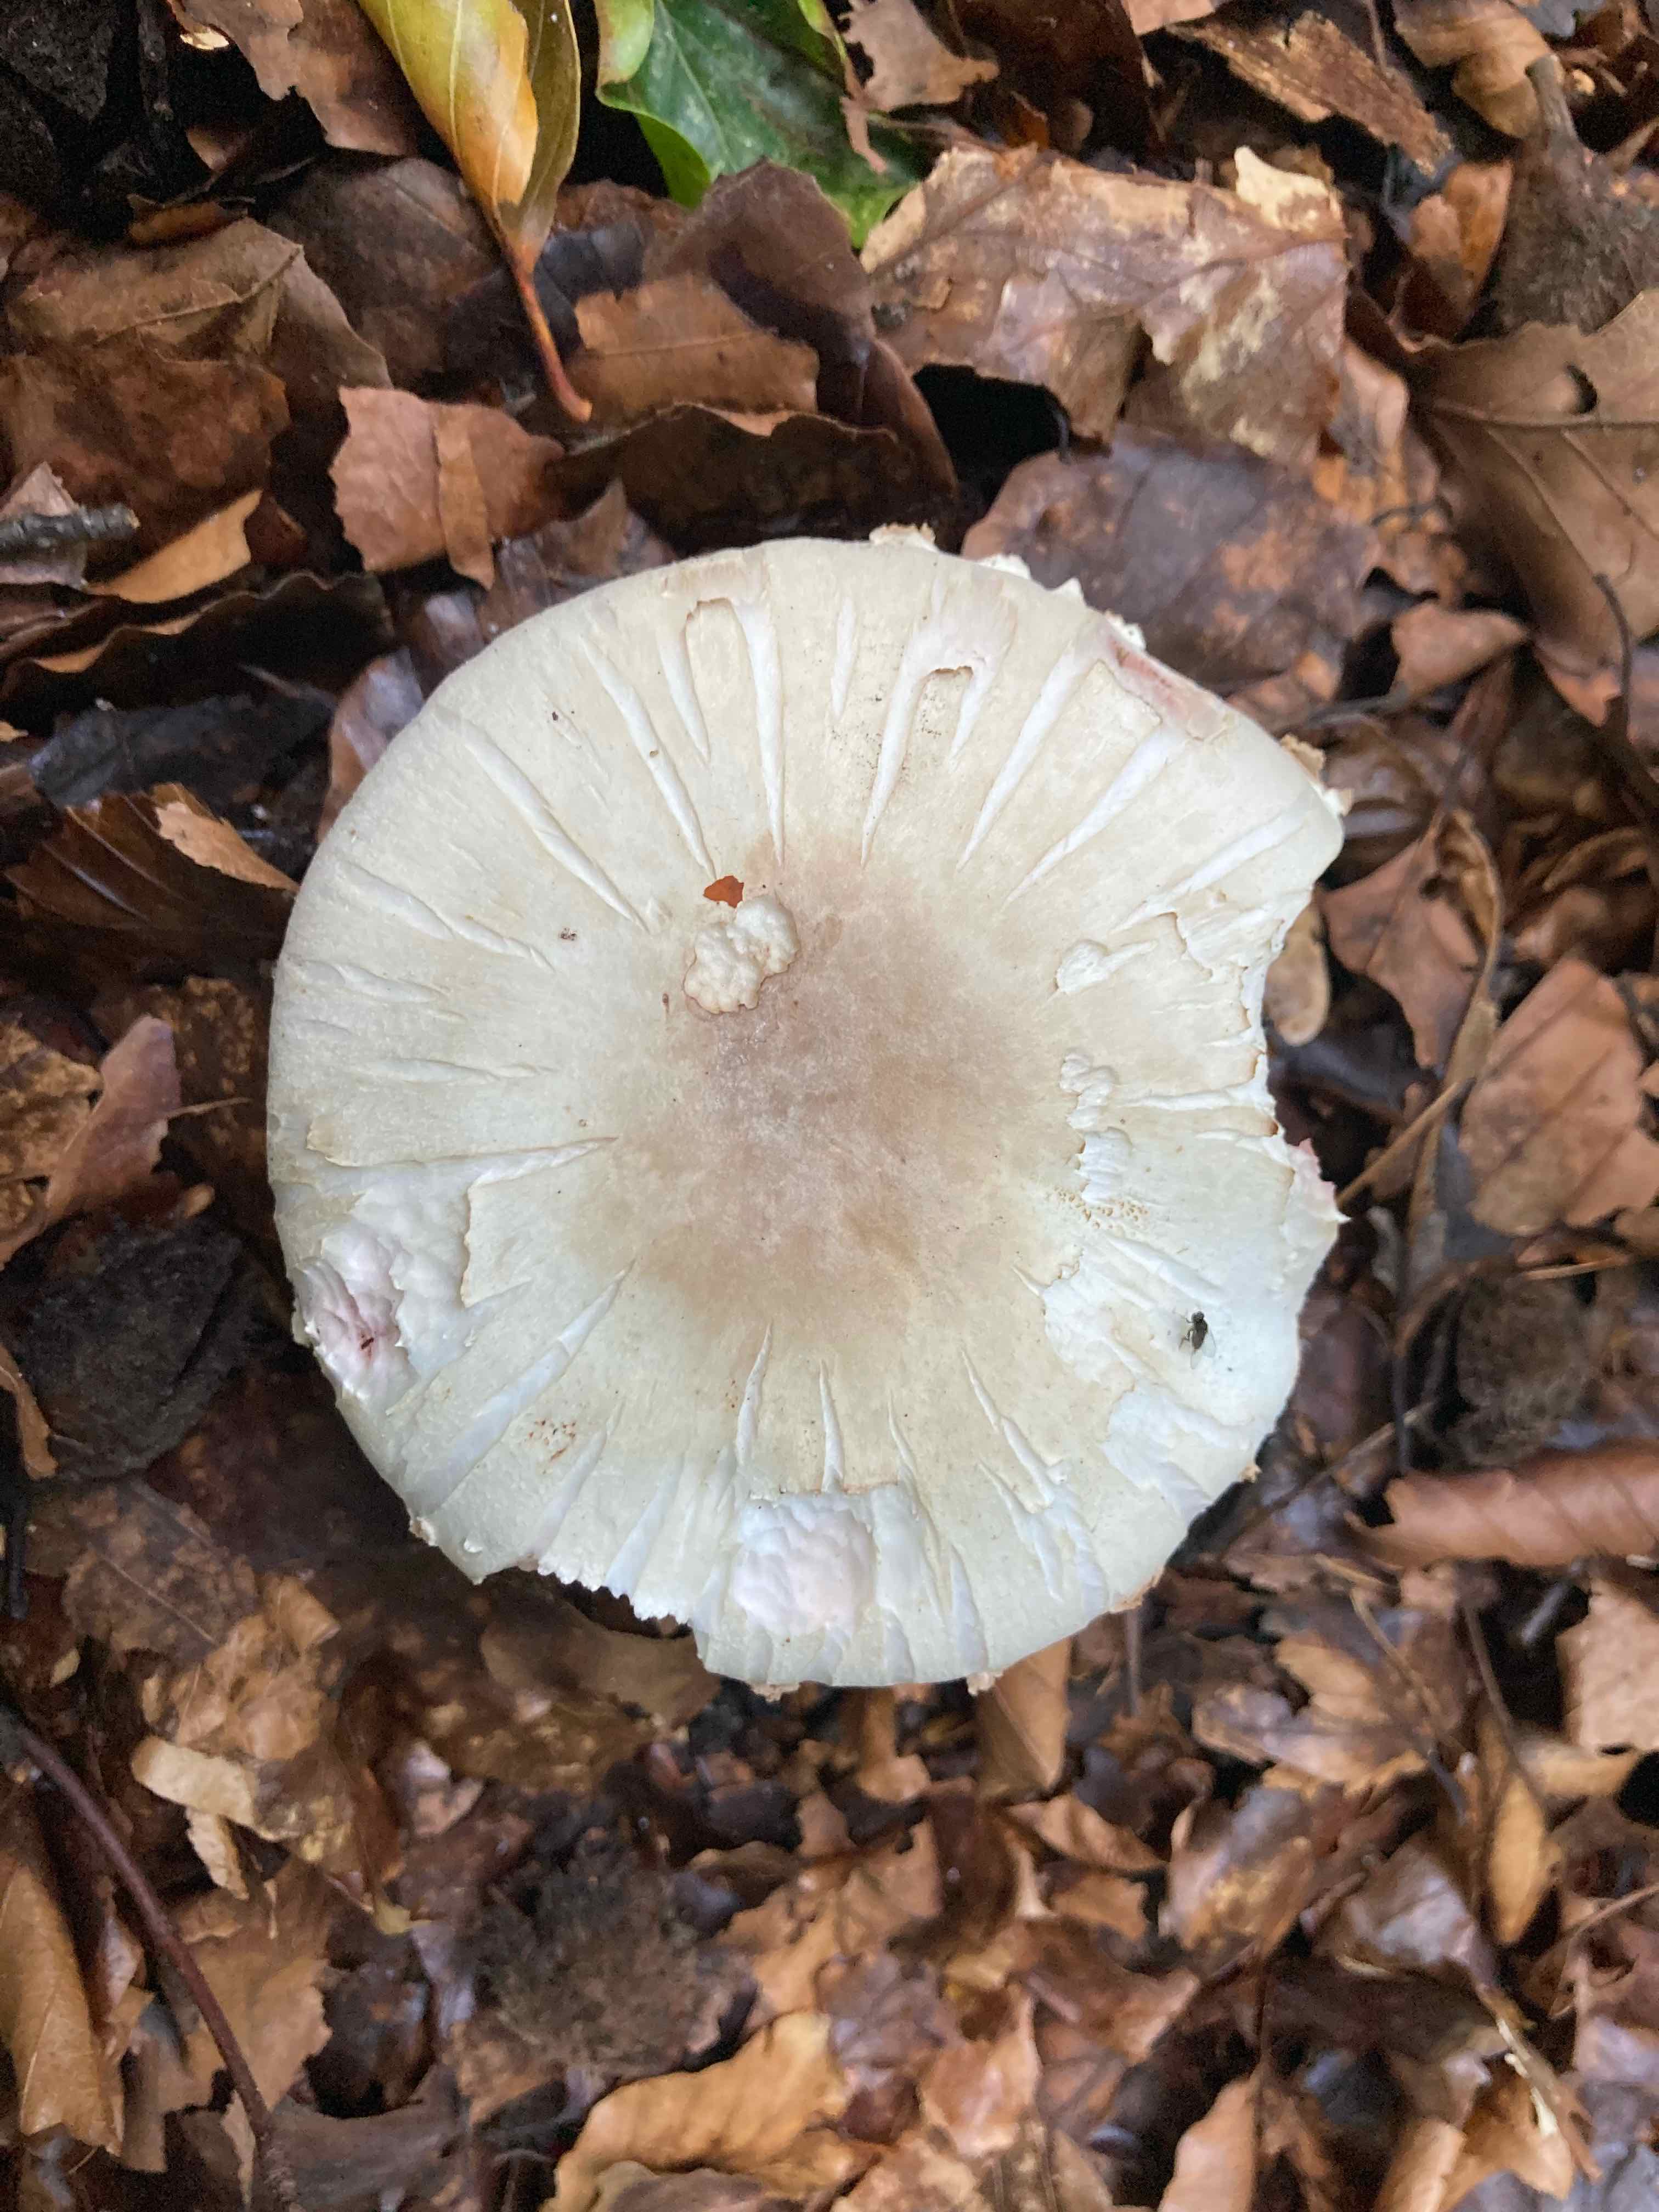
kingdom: Fungi
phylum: Basidiomycota
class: Agaricomycetes
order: Agaricales
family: Agaricaceae
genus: Agaricus
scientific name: Agaricus
